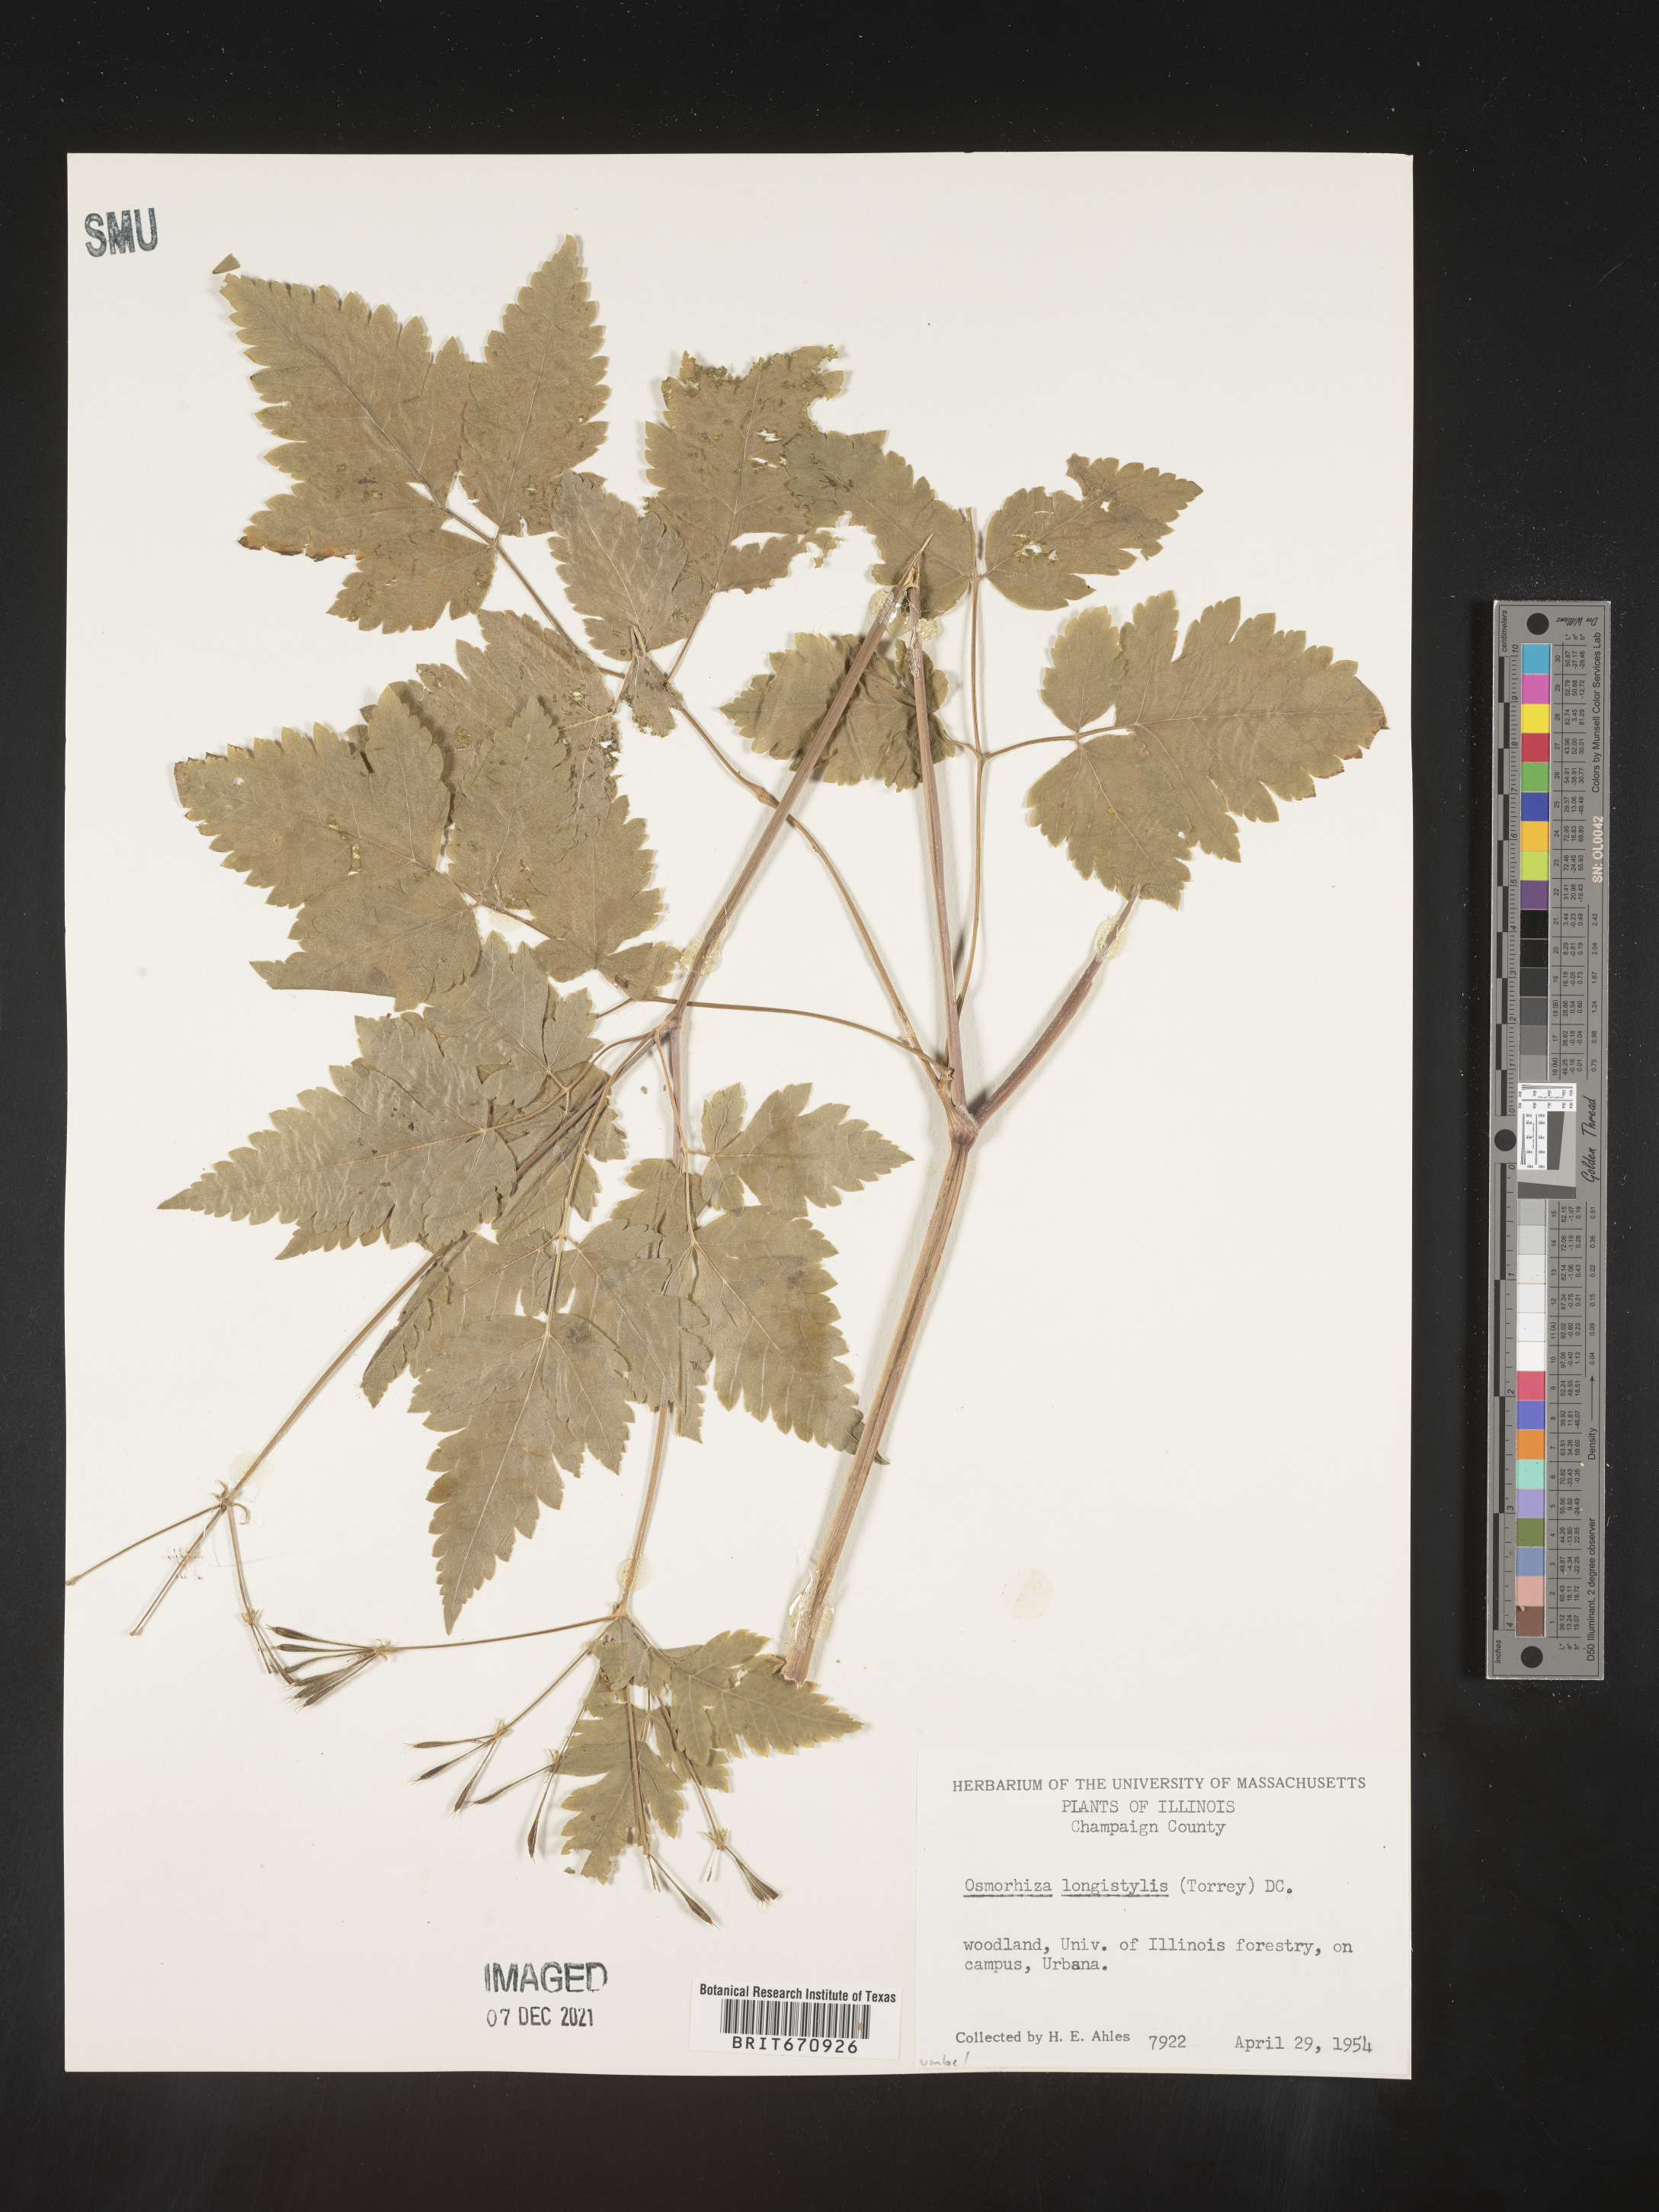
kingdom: Plantae
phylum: Tracheophyta
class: Magnoliopsida
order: Apiales
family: Apiaceae
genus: Osmorhiza
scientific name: Osmorhiza longistylis
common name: Smooth sweet cicely
